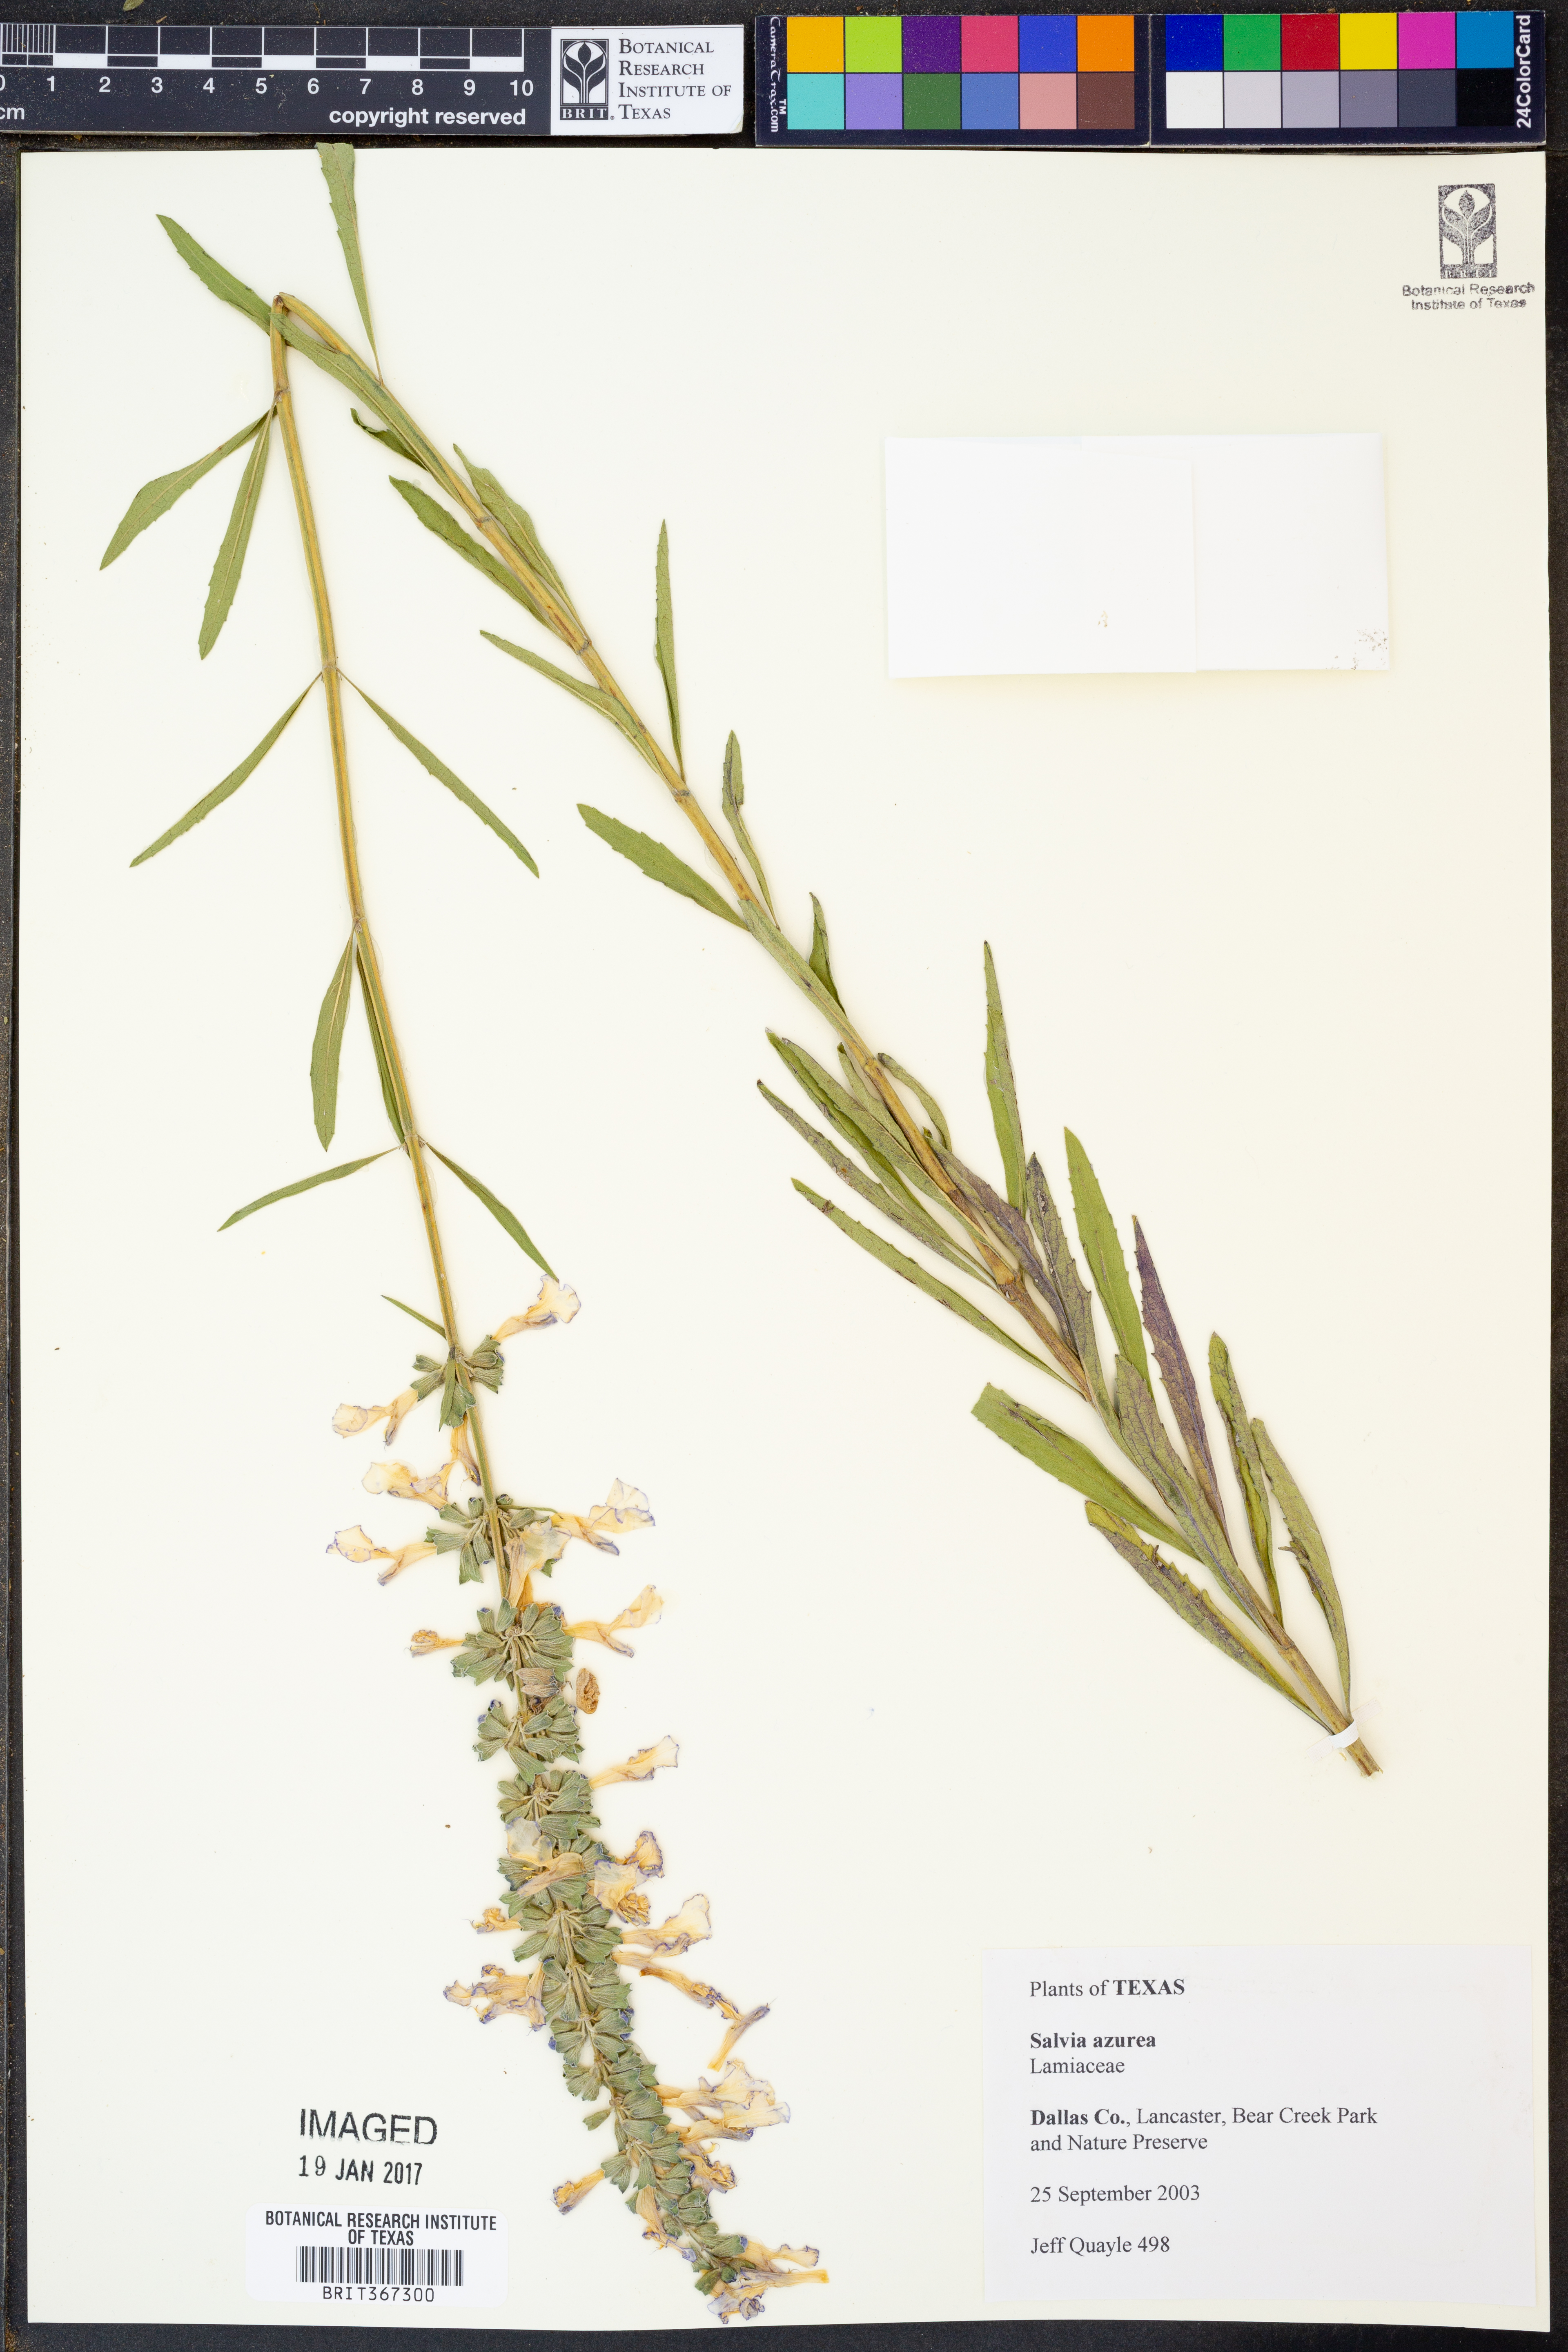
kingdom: Plantae
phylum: Tracheophyta
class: Magnoliopsida
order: Lamiales
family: Lamiaceae
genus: Salvia
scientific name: Salvia azurea
